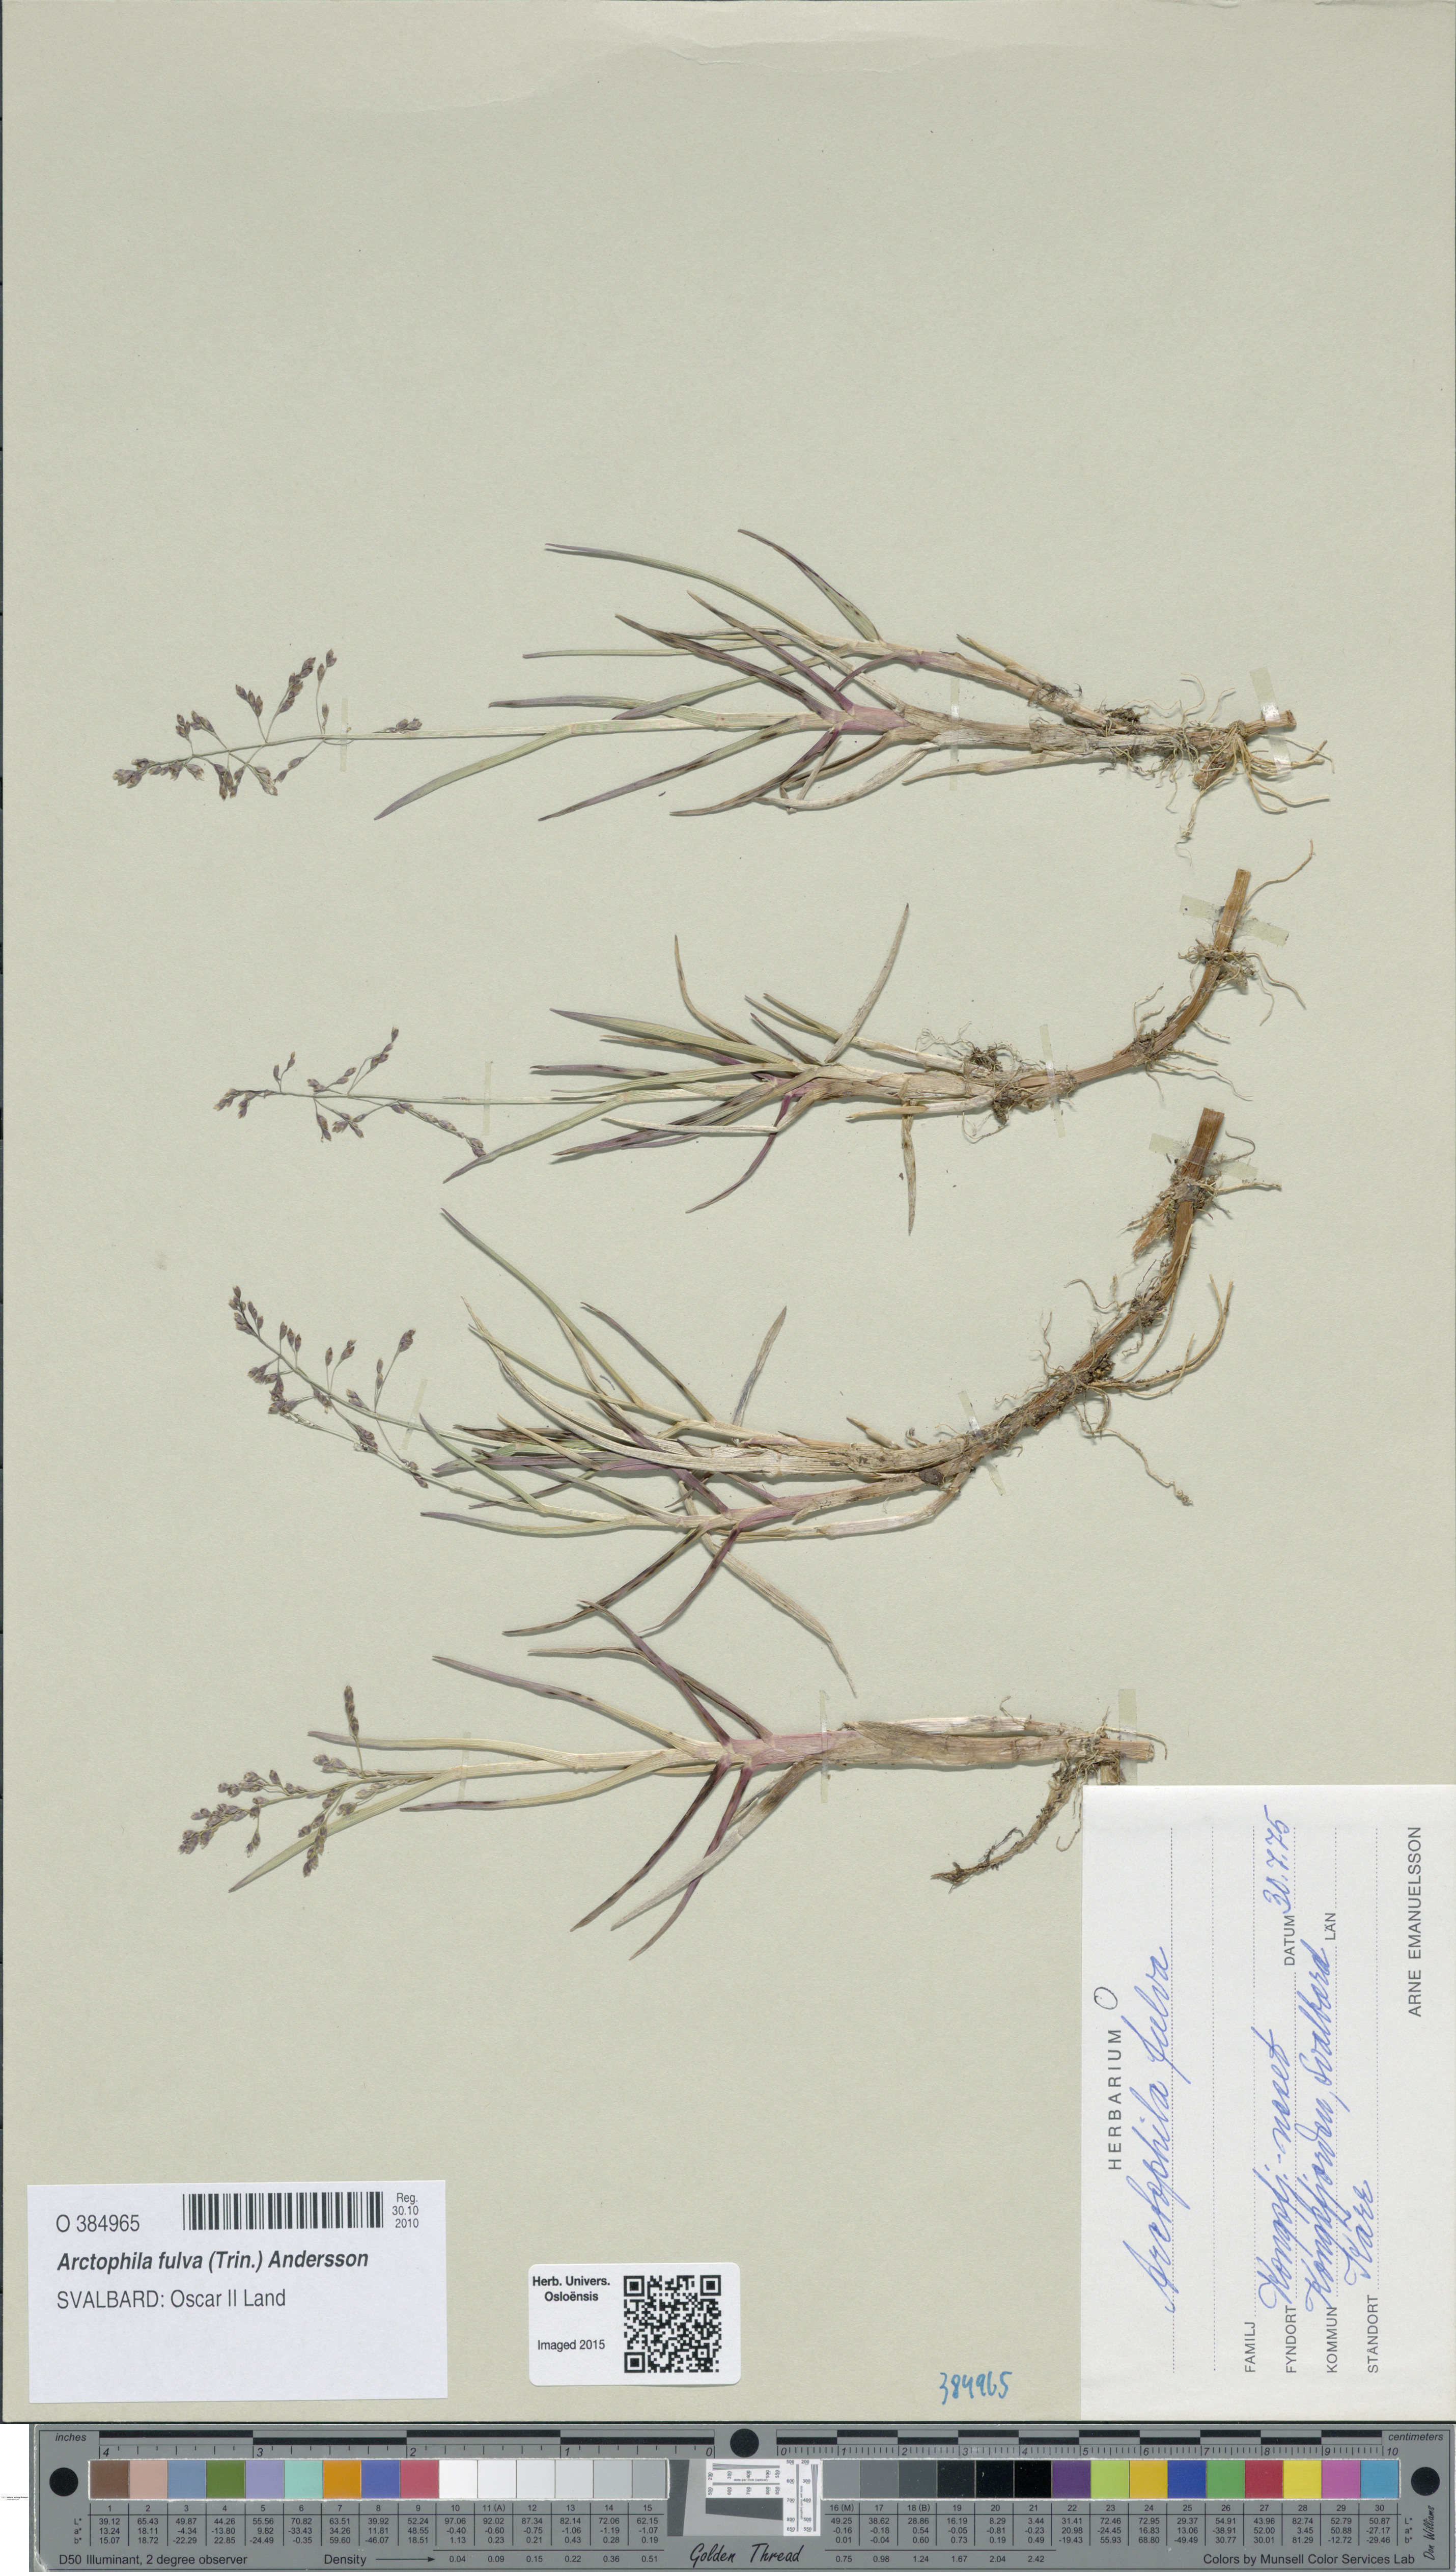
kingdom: Plantae
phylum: Tracheophyta
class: Liliopsida
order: Poales
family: Poaceae
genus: Dupontia
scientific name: Dupontia fulva
